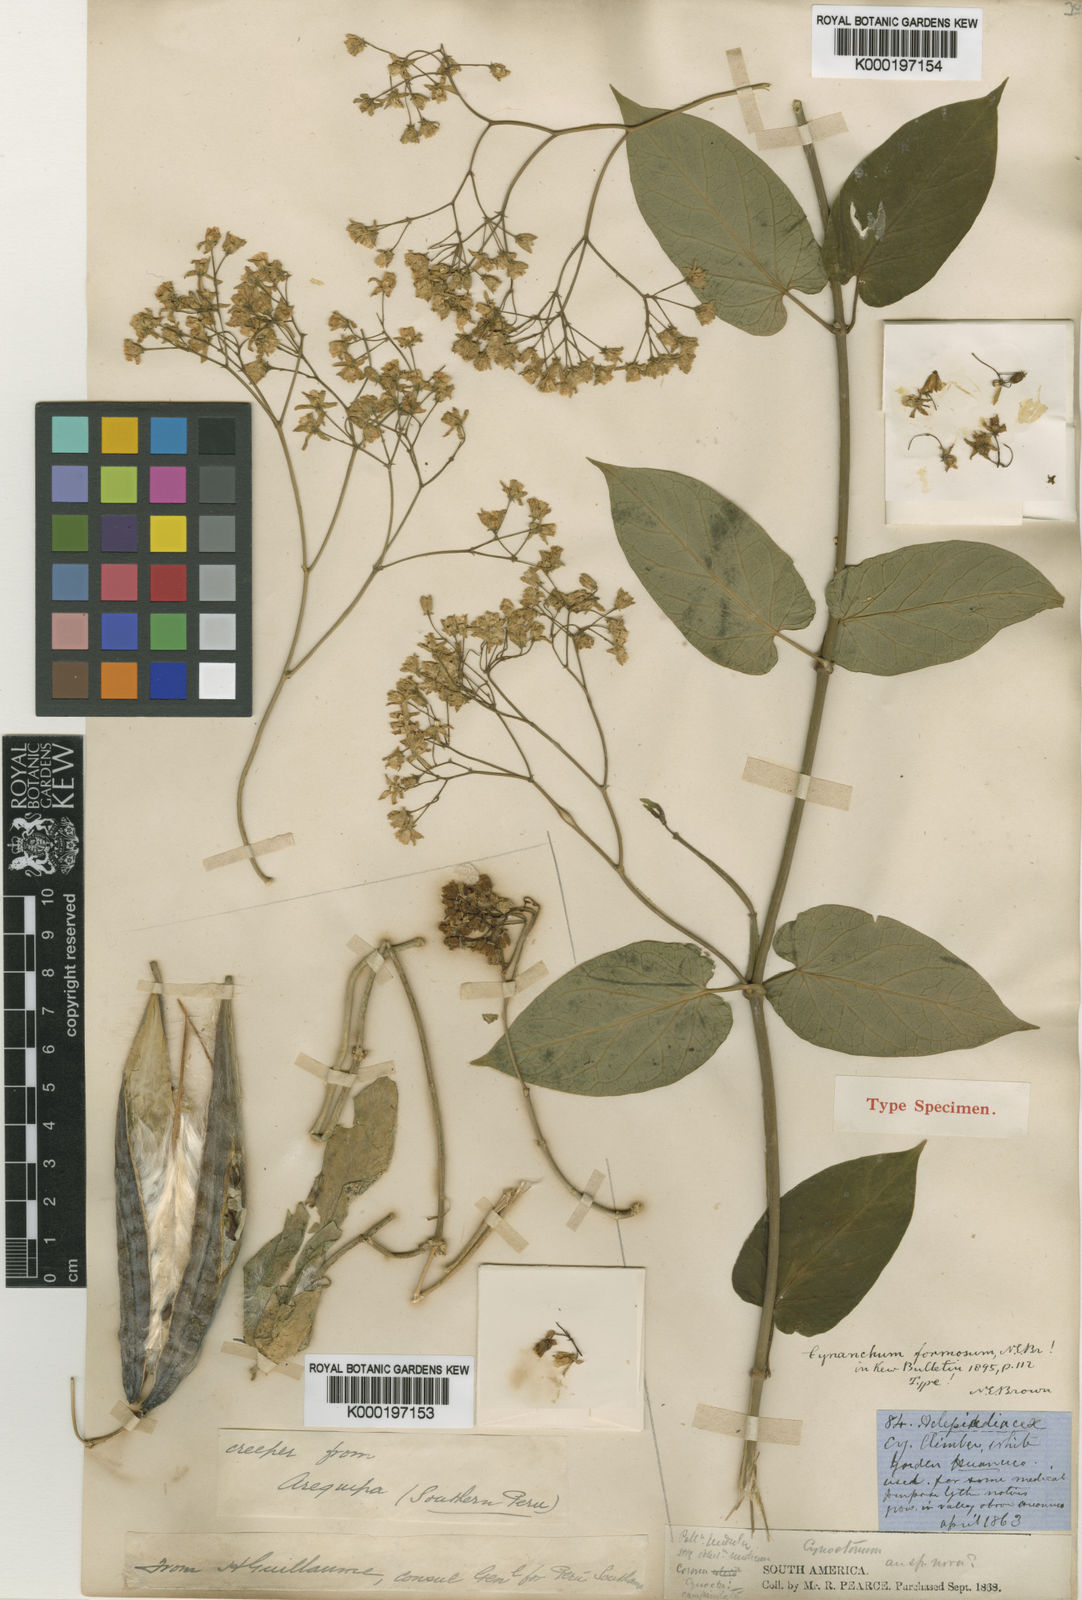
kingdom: Plantae
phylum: Tracheophyta
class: Magnoliopsida
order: Gentianales
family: Apocynaceae
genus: Jobinia
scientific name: Jobinia formosa
